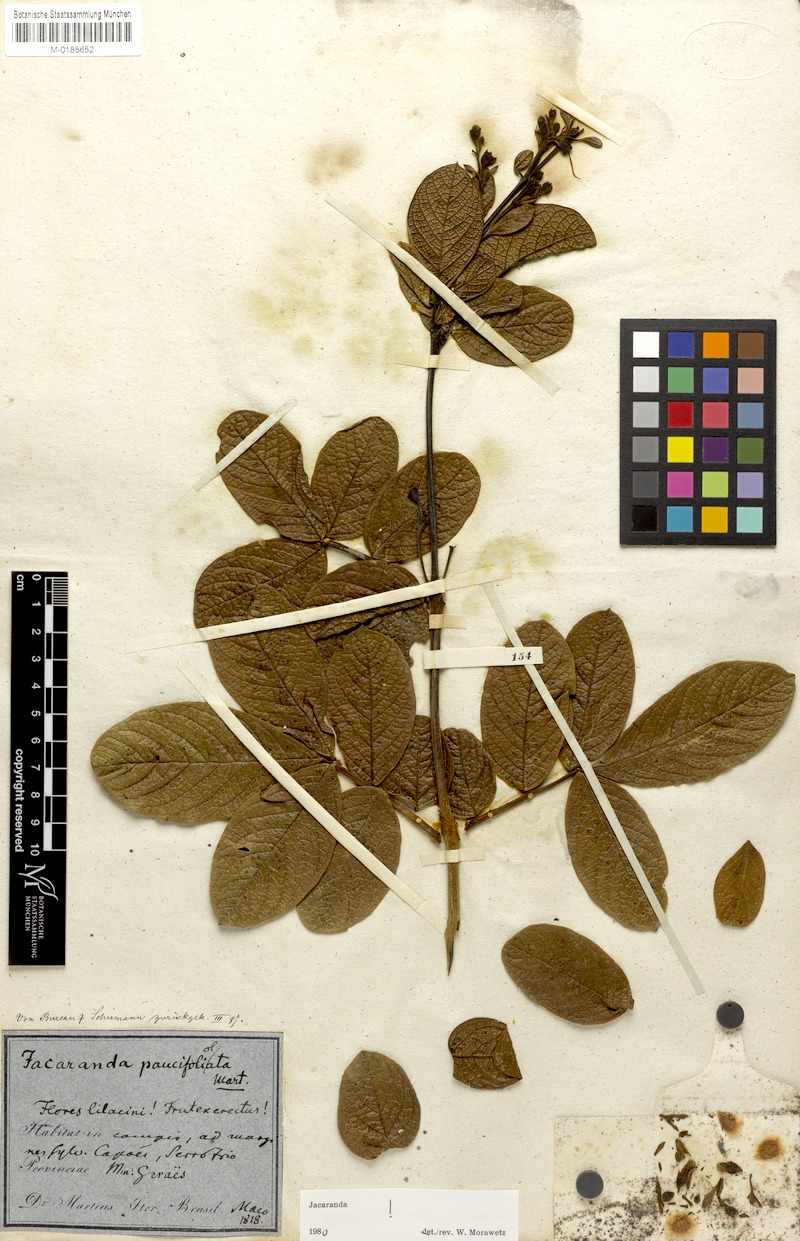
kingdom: Plantae
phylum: Tracheophyta
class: Magnoliopsida
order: Lamiales
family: Bignoniaceae
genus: Jacaranda
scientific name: Jacaranda paucifoliolata
